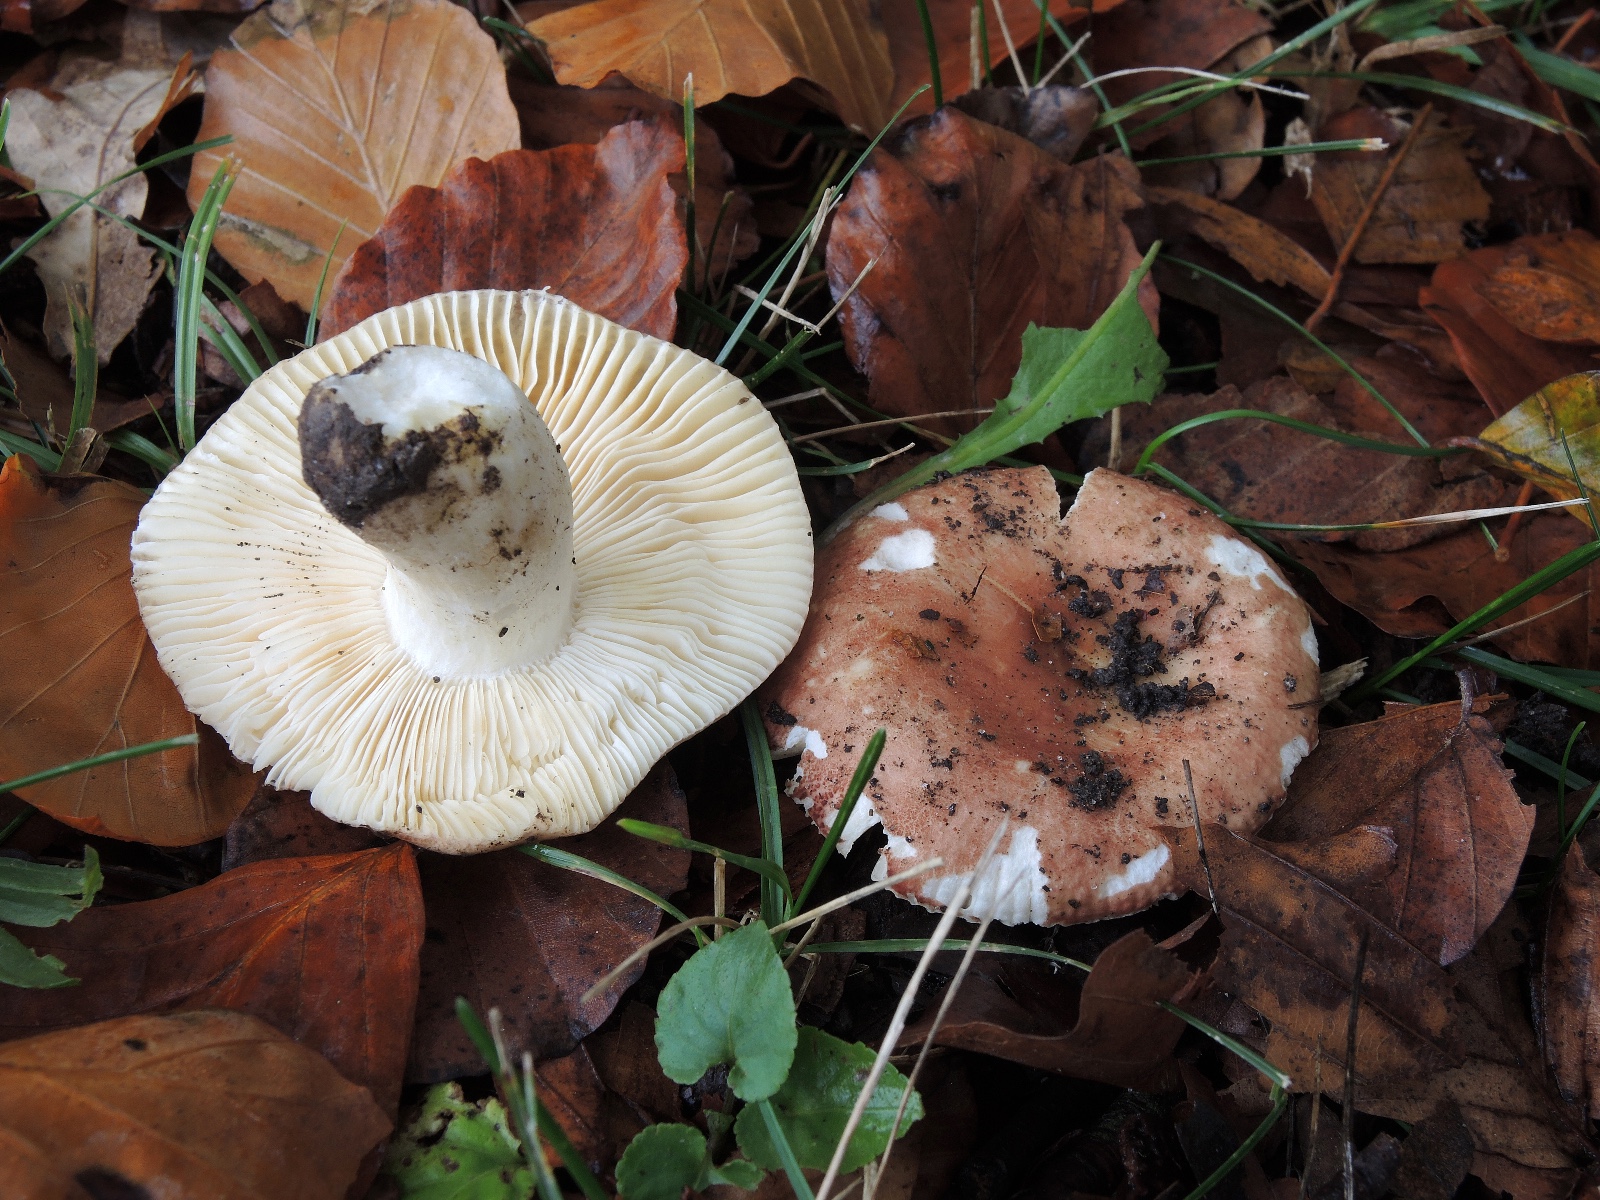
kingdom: Fungi
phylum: Basidiomycota
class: Agaricomycetes
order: Russulales
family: Russulaceae
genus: Russula
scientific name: Russula laeta
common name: orangerosa skørhat
